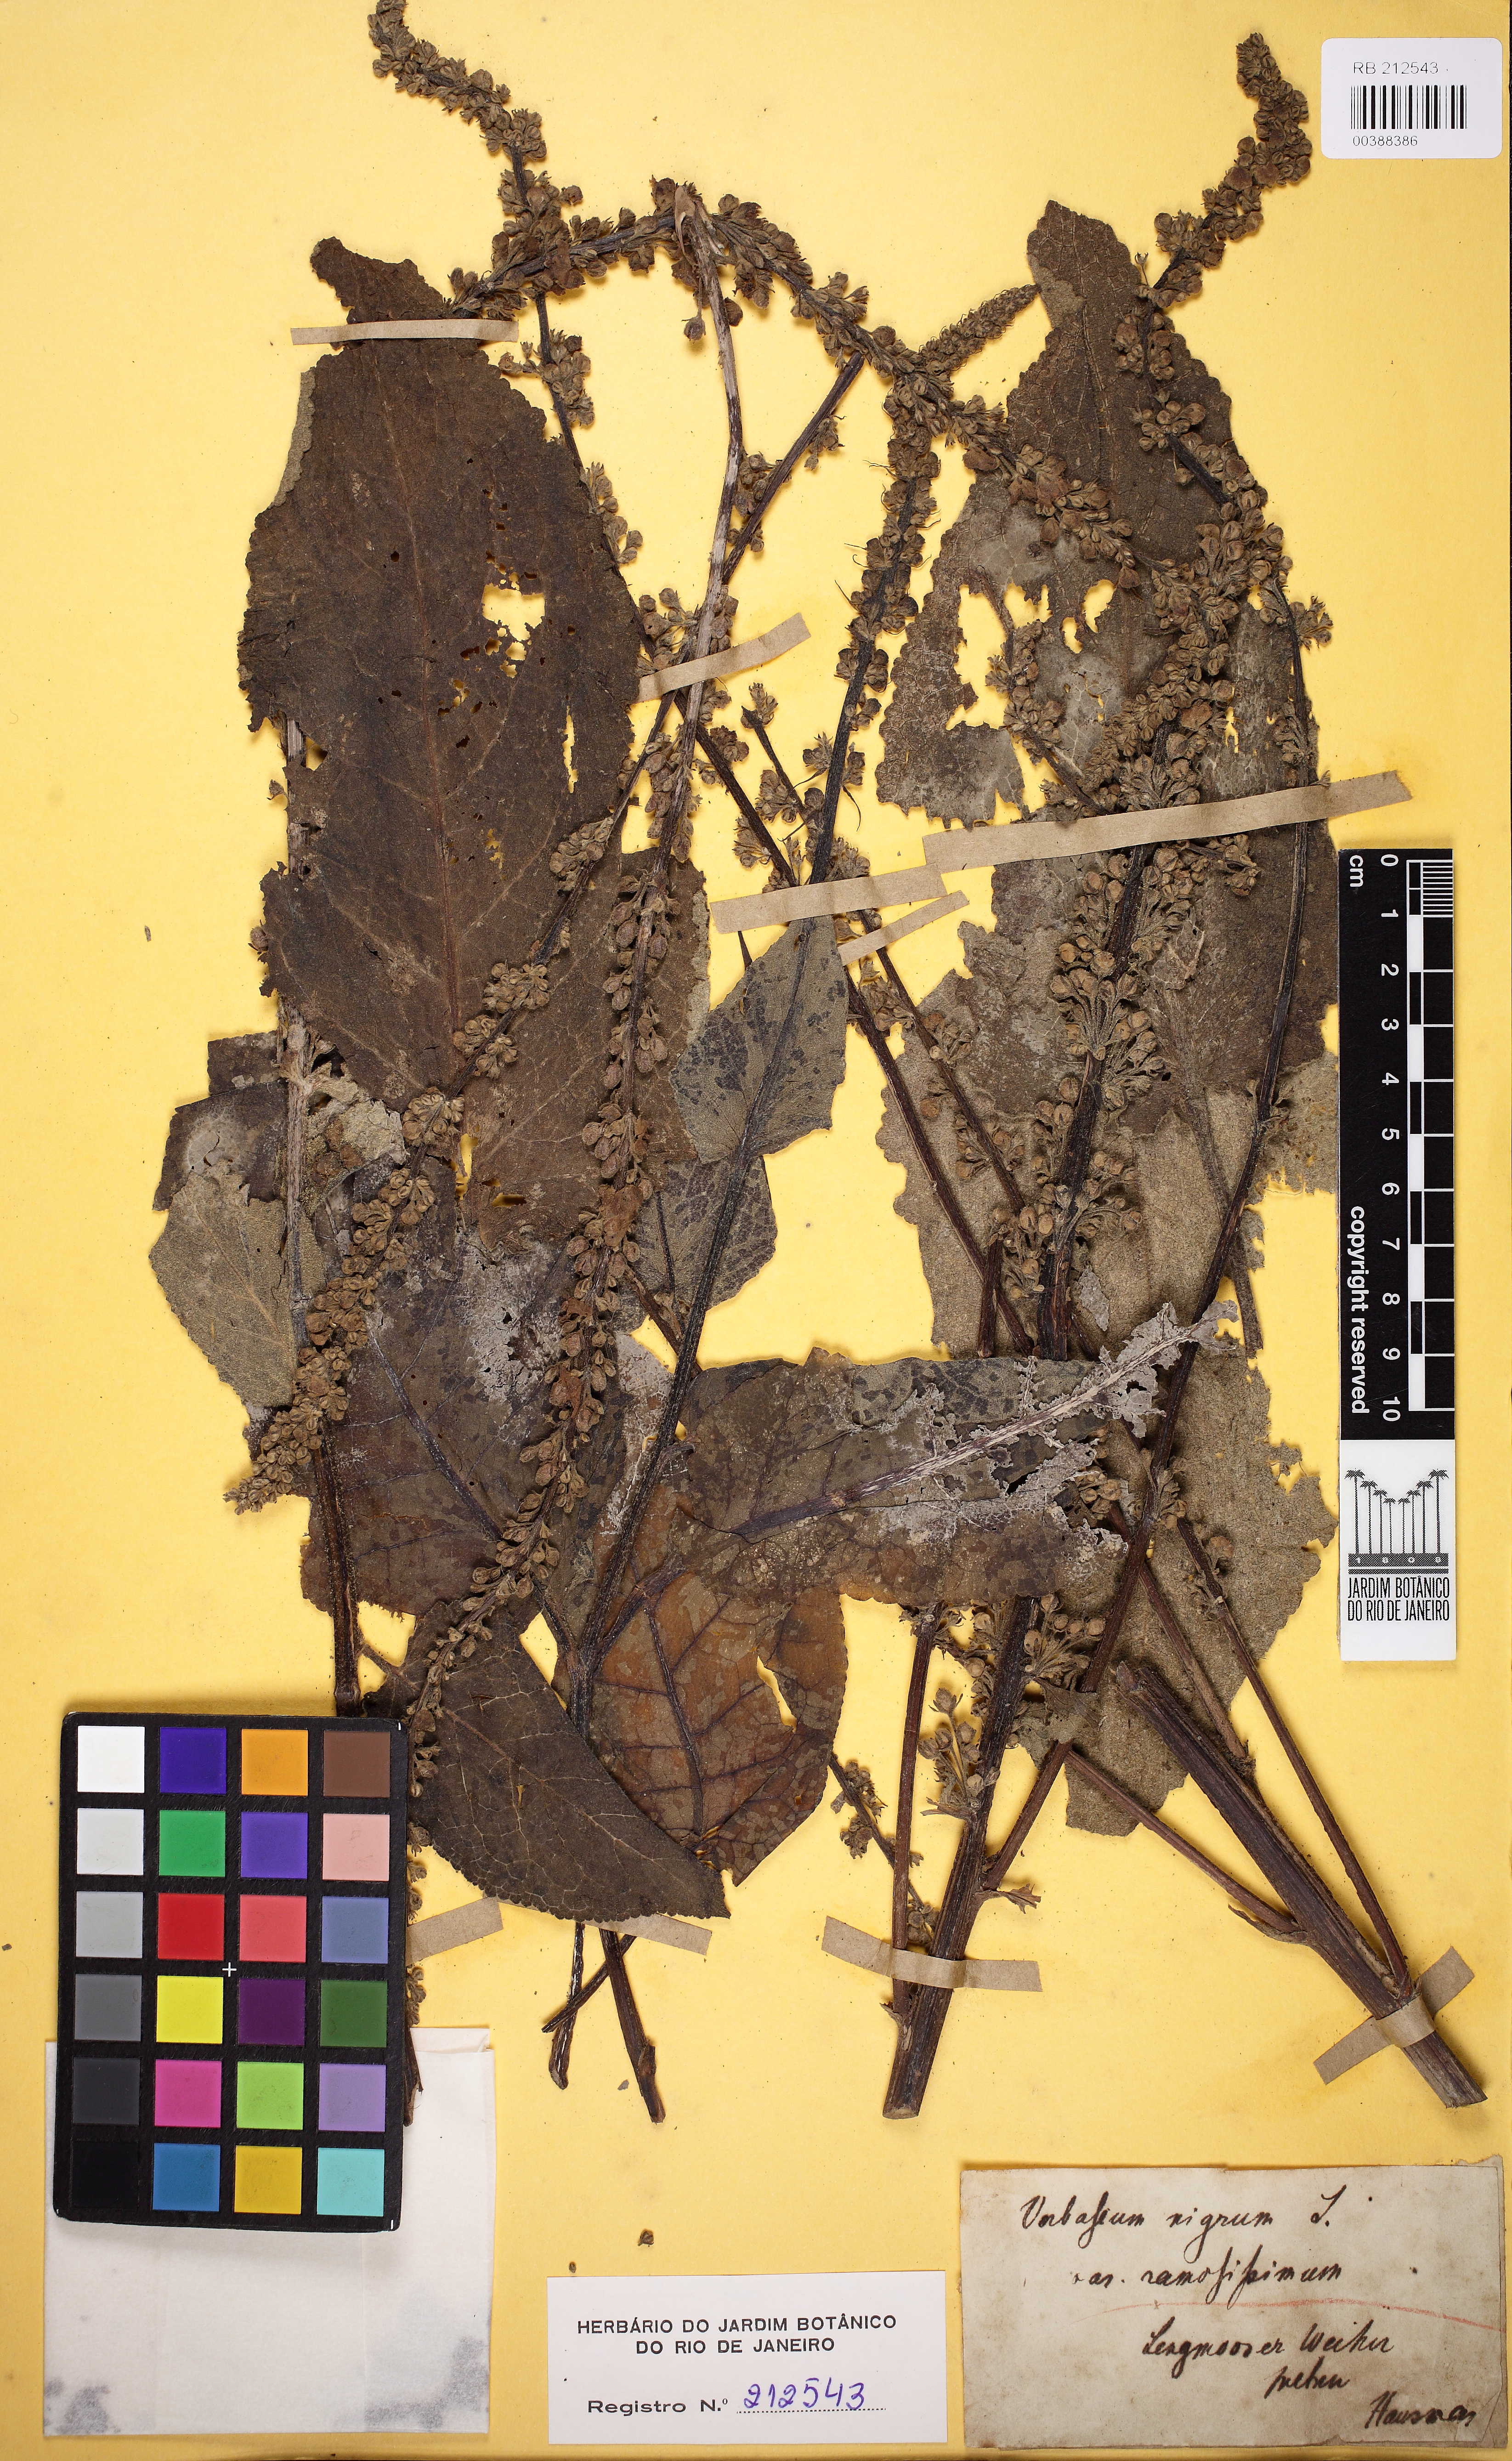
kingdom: Plantae
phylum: Tracheophyta
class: Magnoliopsida
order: Lamiales
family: Scrophulariaceae
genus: Verbascum
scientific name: Verbascum nigrum
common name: Dark mullein
